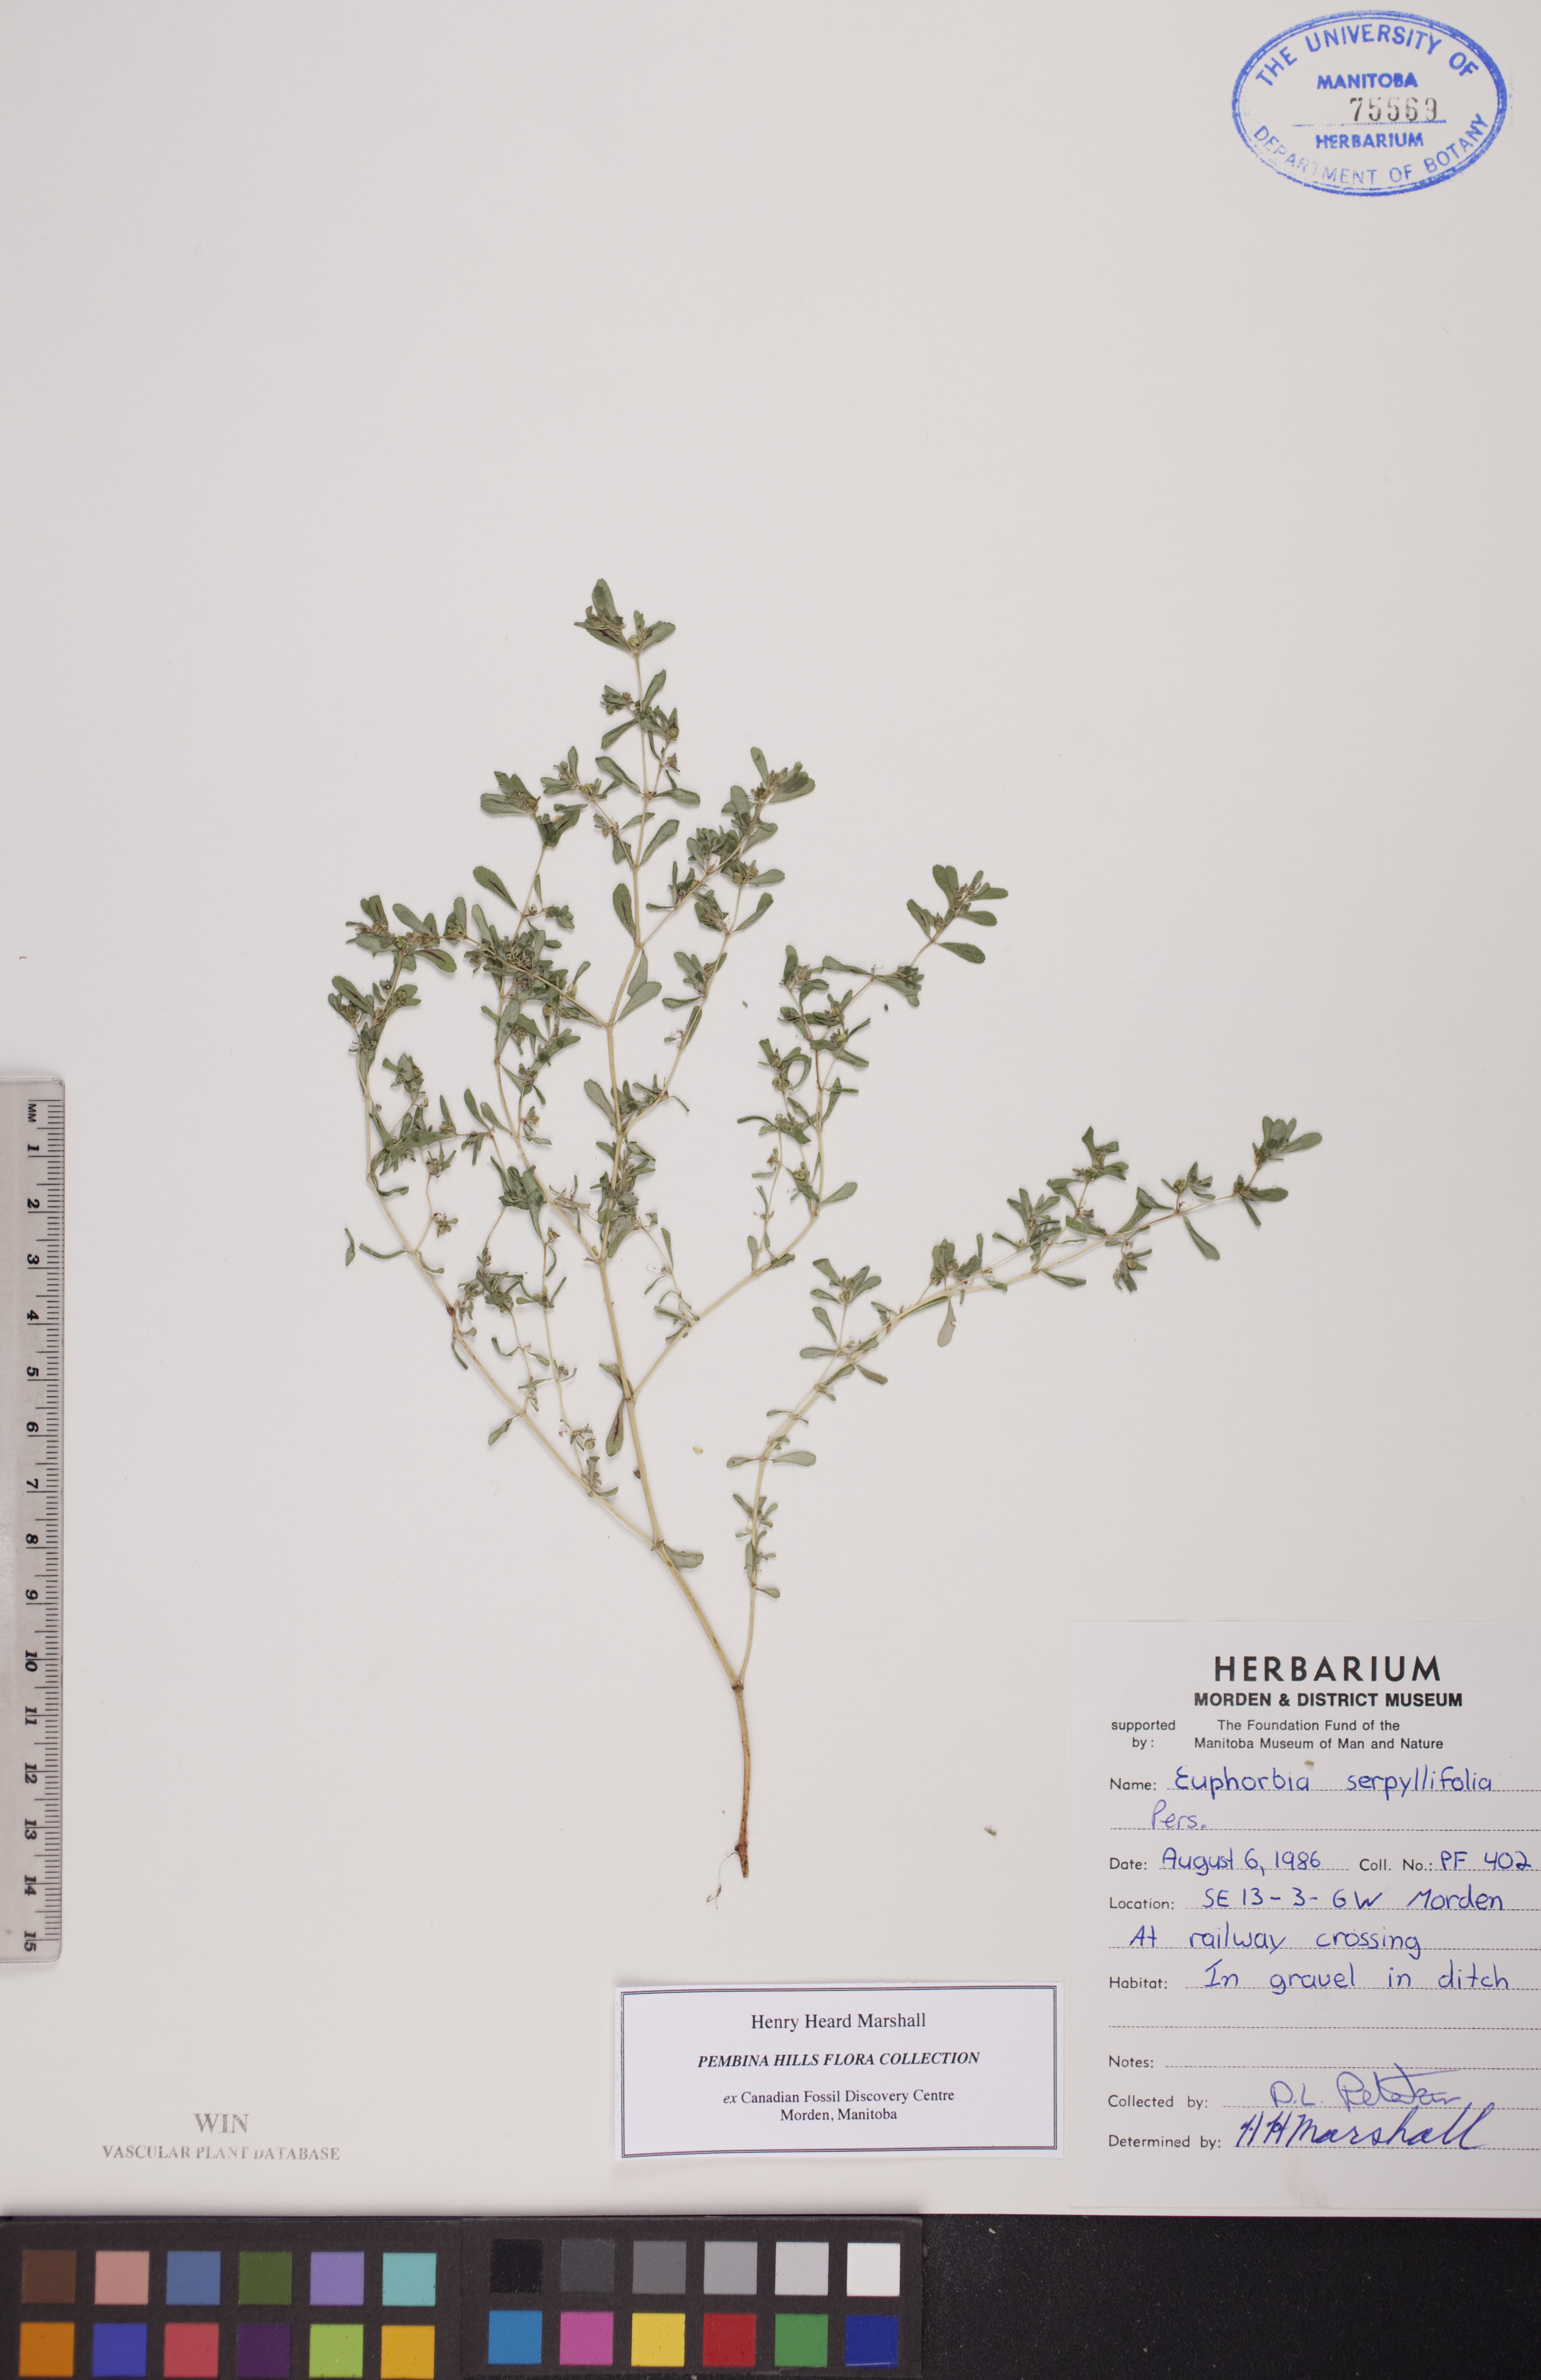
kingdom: Plantae
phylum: Tracheophyta
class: Magnoliopsida
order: Malpighiales
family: Euphorbiaceae
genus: Euphorbia
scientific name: Euphorbia serpillifolia
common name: Thyme-leaf spurge
